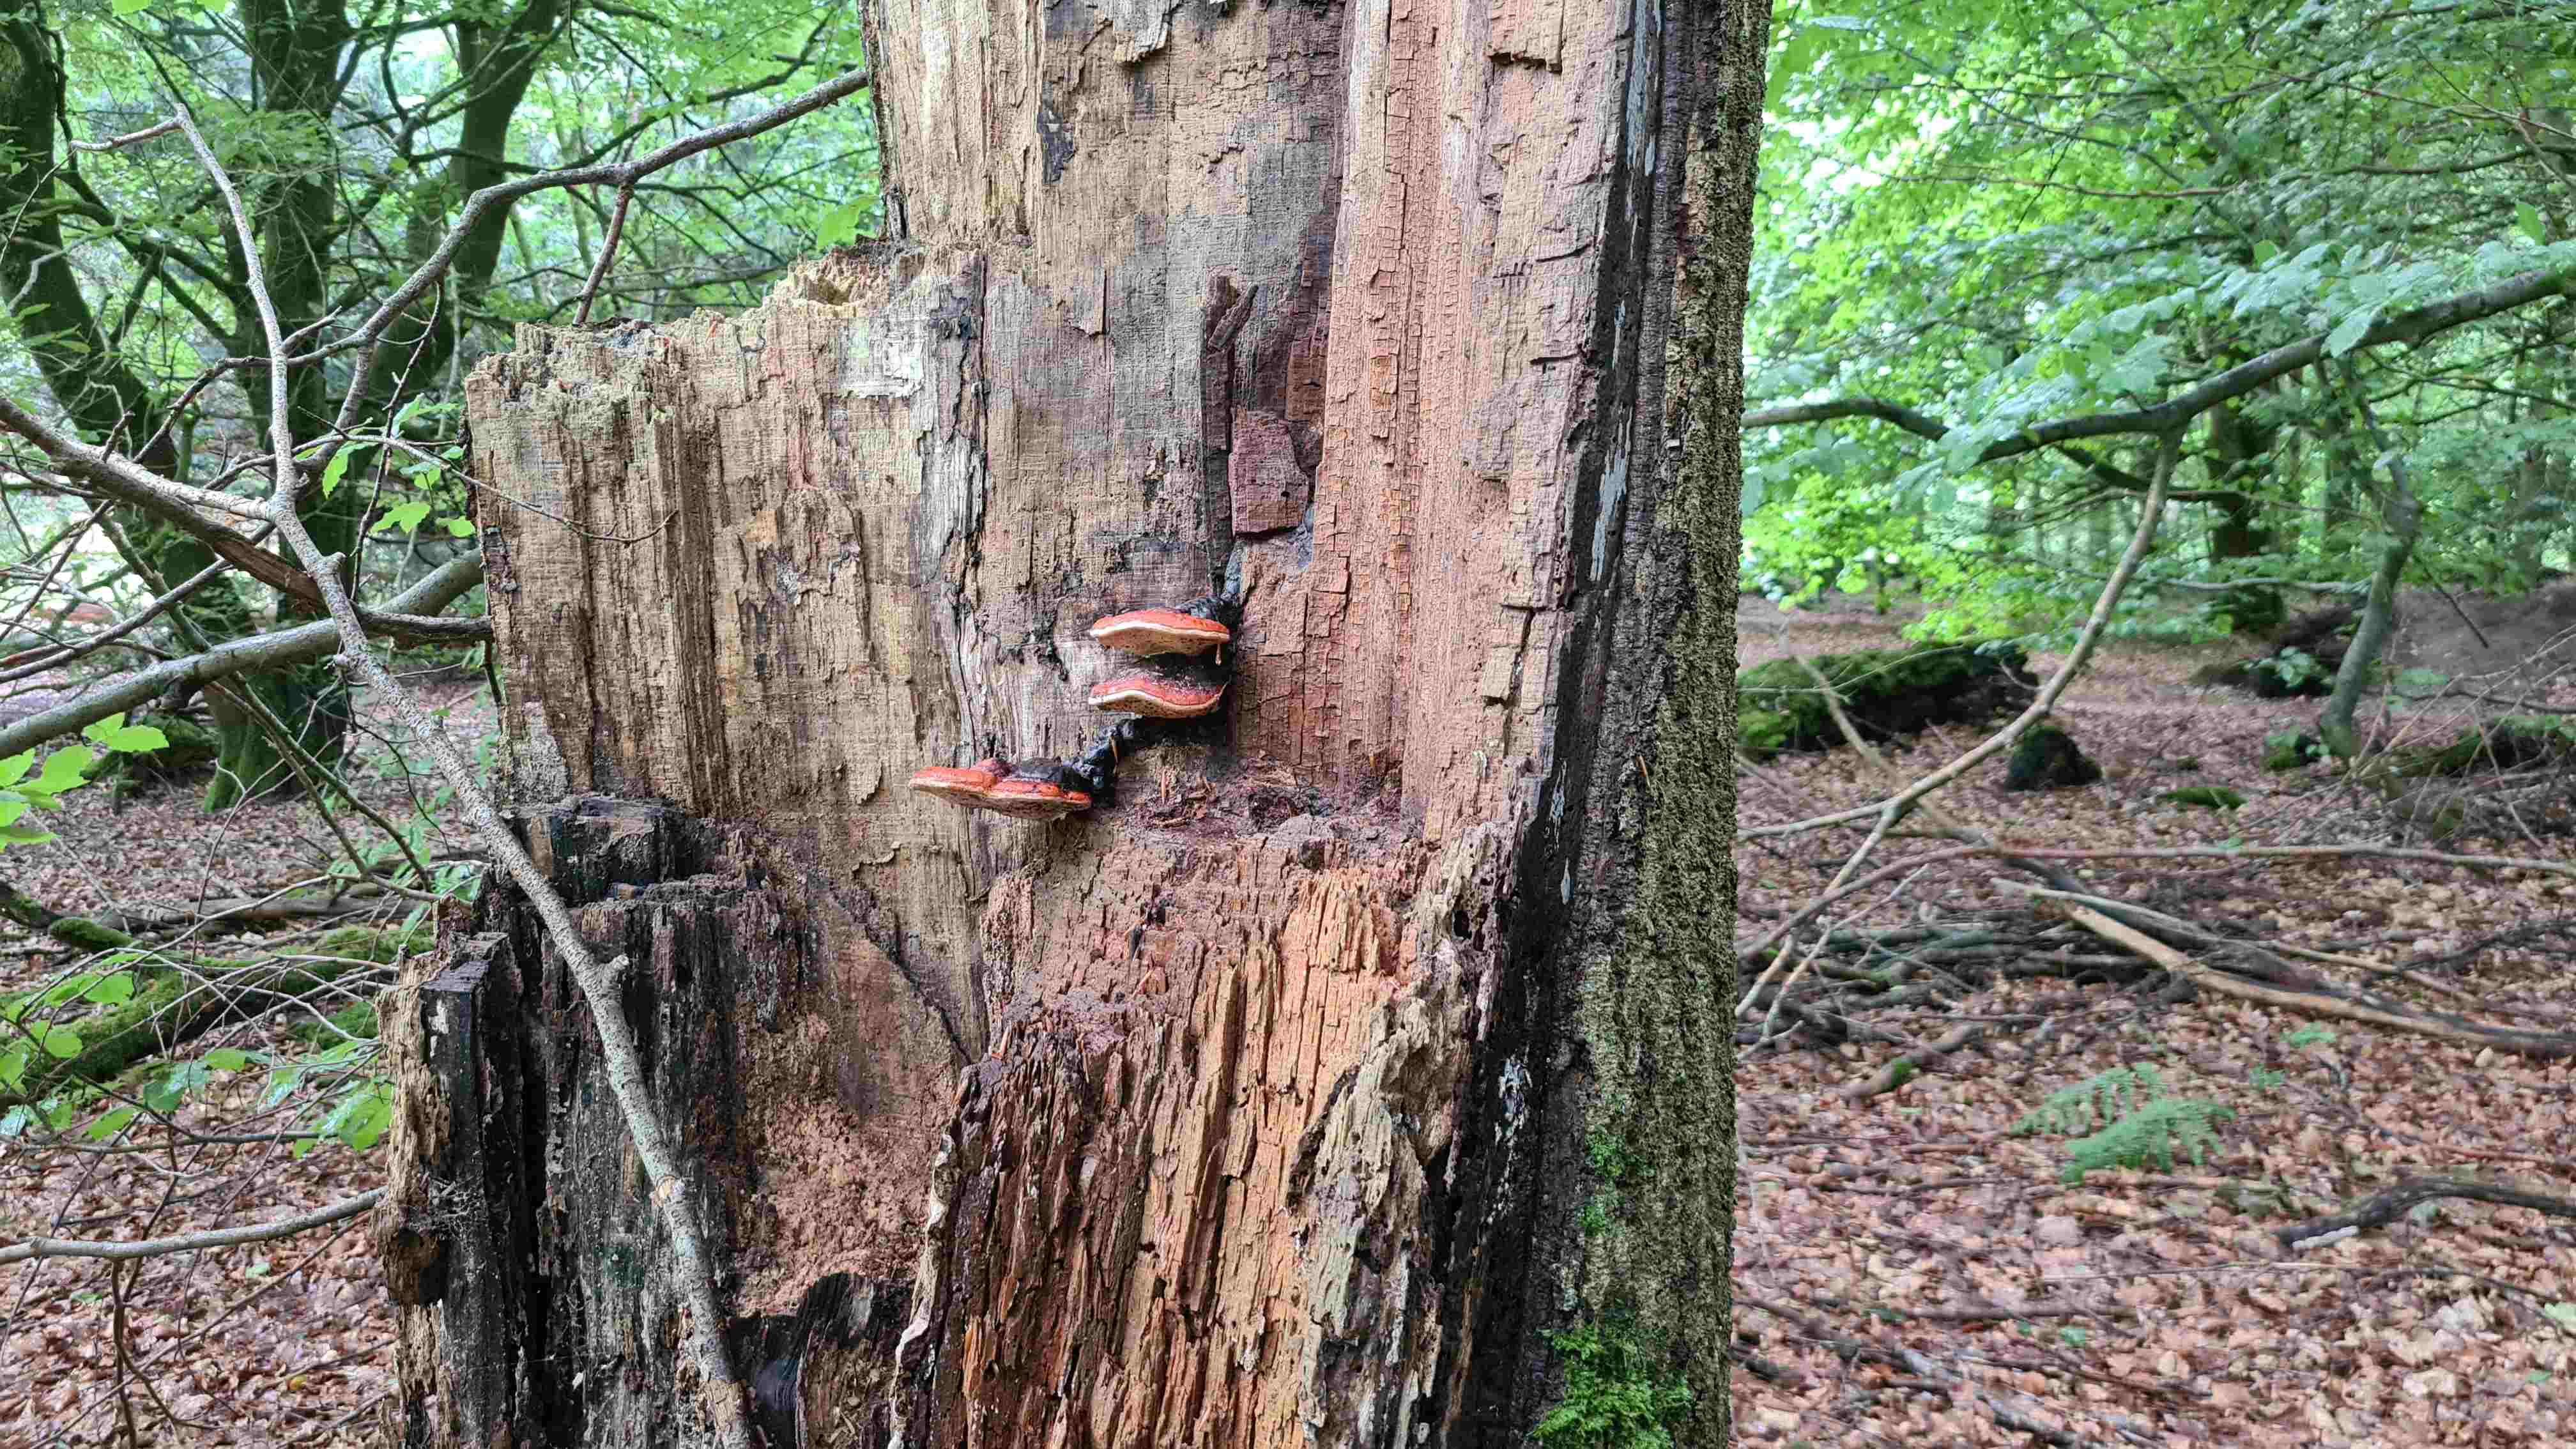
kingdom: Fungi
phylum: Basidiomycota
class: Agaricomycetes
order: Polyporales
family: Fomitopsidaceae
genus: Fomitopsis
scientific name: Fomitopsis pinicola
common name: randbæltet hovporesvamp
